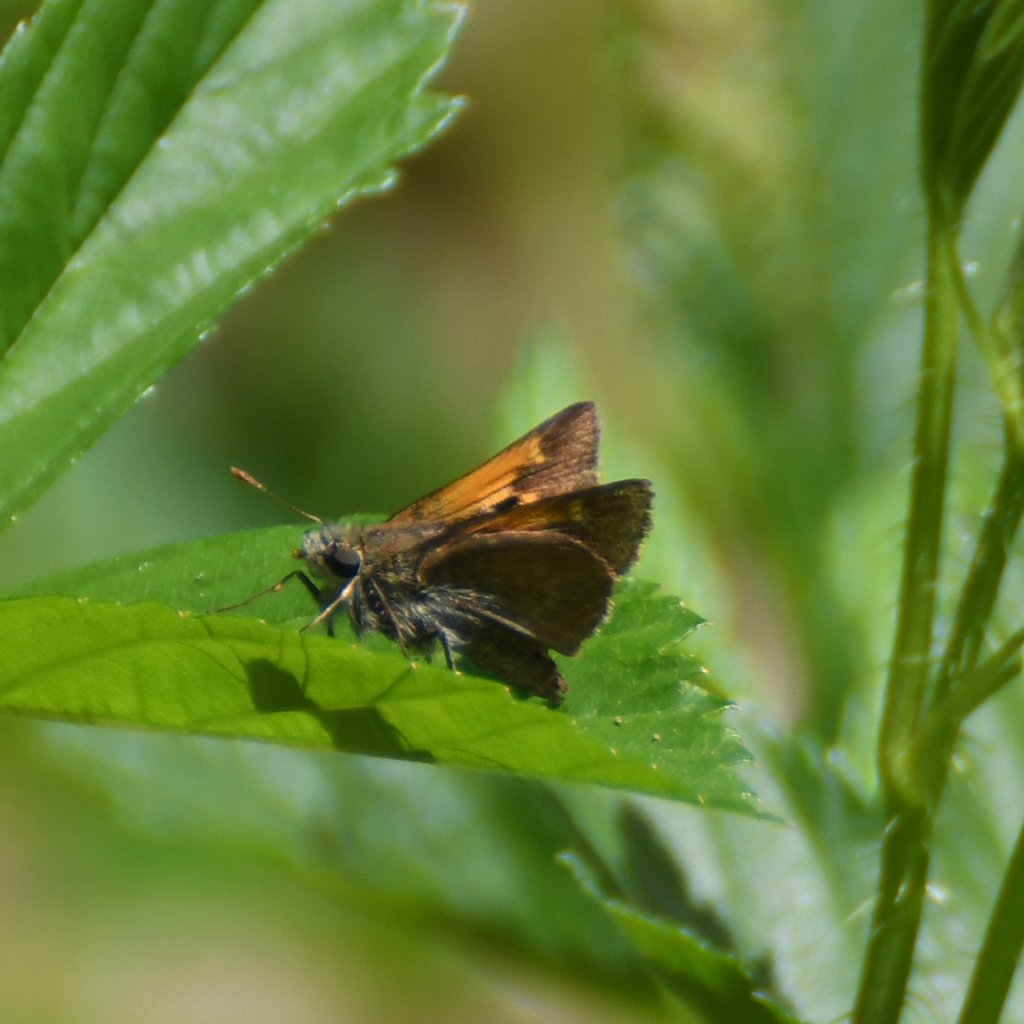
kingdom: Animalia
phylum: Arthropoda
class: Insecta
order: Lepidoptera
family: Hesperiidae
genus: Polites
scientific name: Polites themistocles
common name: Tawny-edged Skipper
